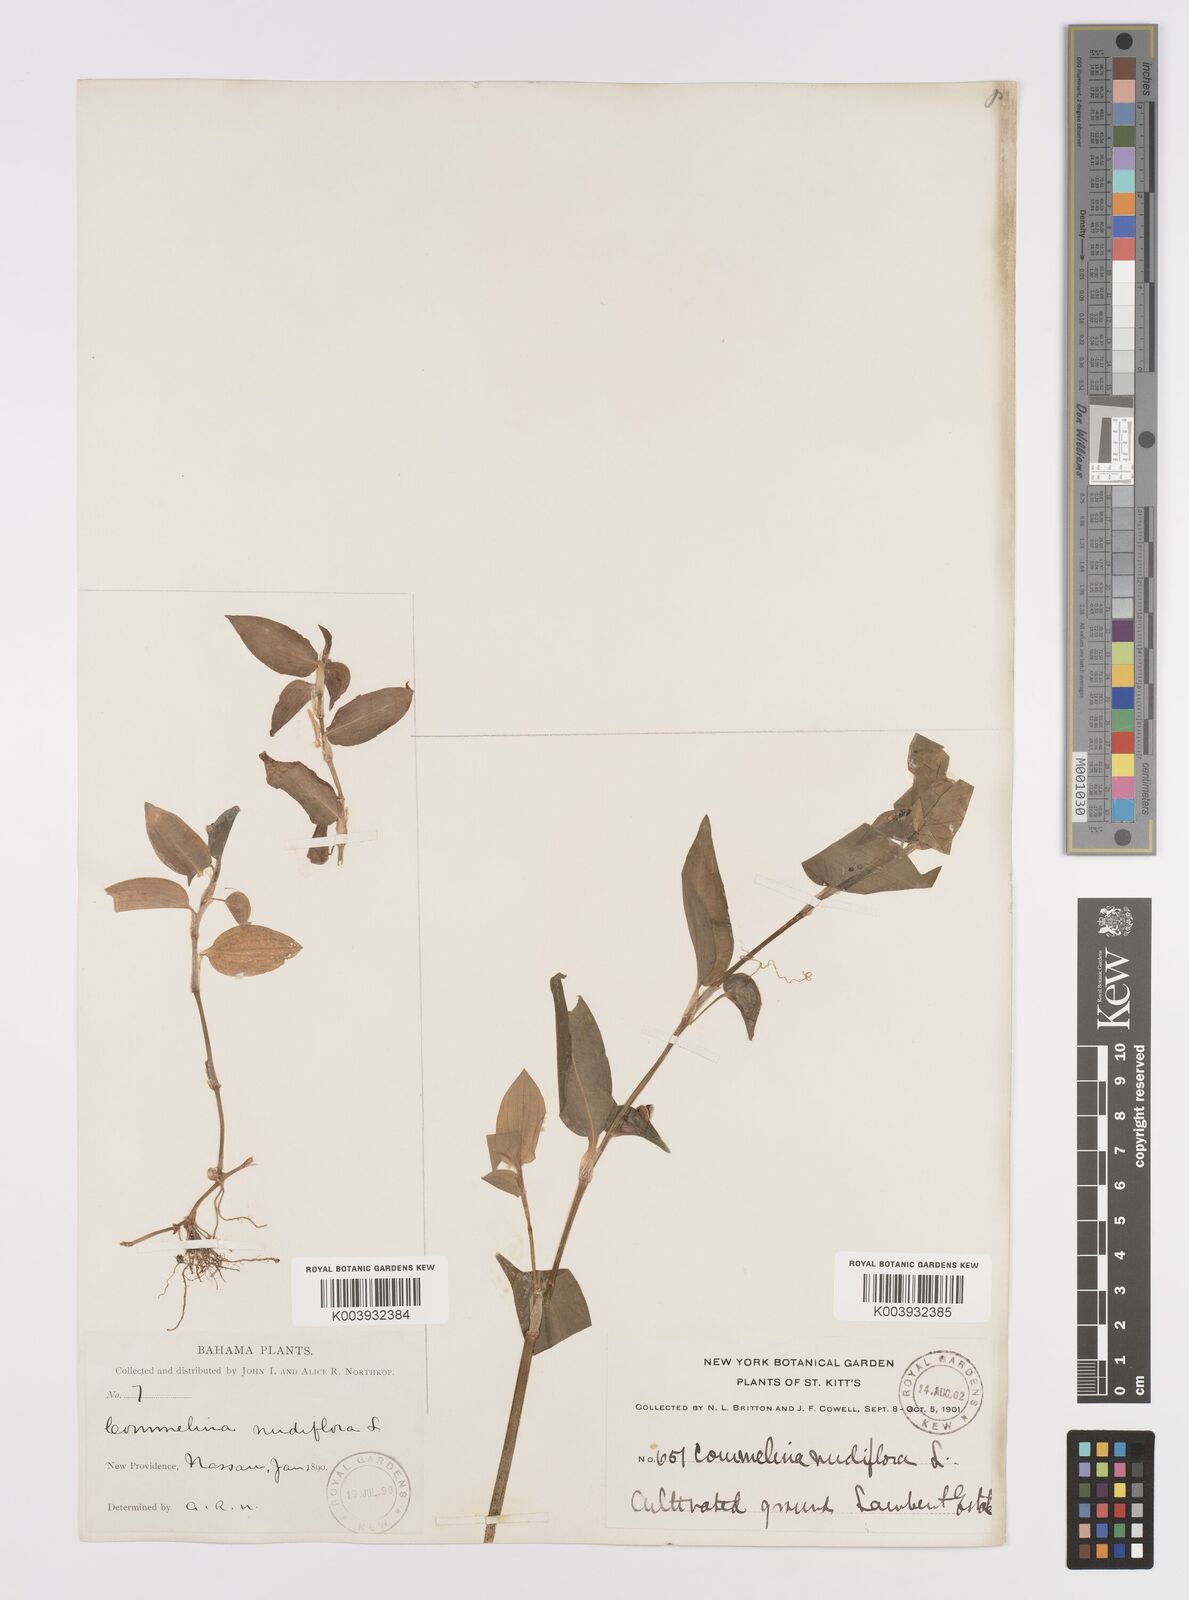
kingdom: Plantae
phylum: Tracheophyta
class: Liliopsida
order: Commelinales
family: Commelinaceae
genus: Commelina
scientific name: Commelina
